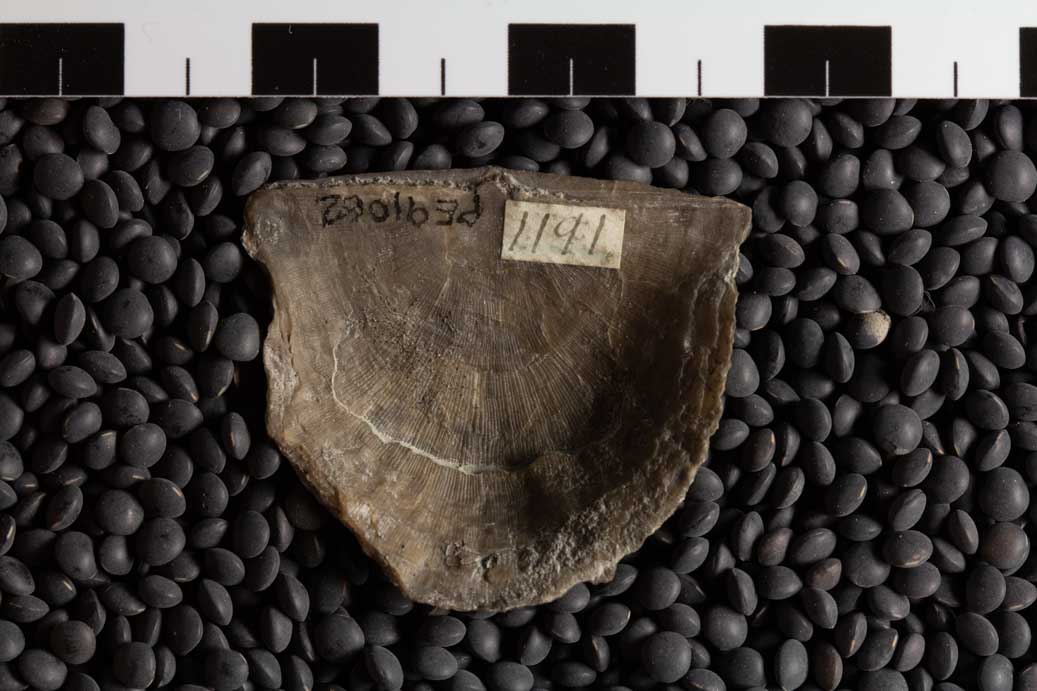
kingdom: Animalia
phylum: Brachiopoda
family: Strophomenidae
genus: Rafinesquina
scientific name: Rafinesquina Leptaena alternata
